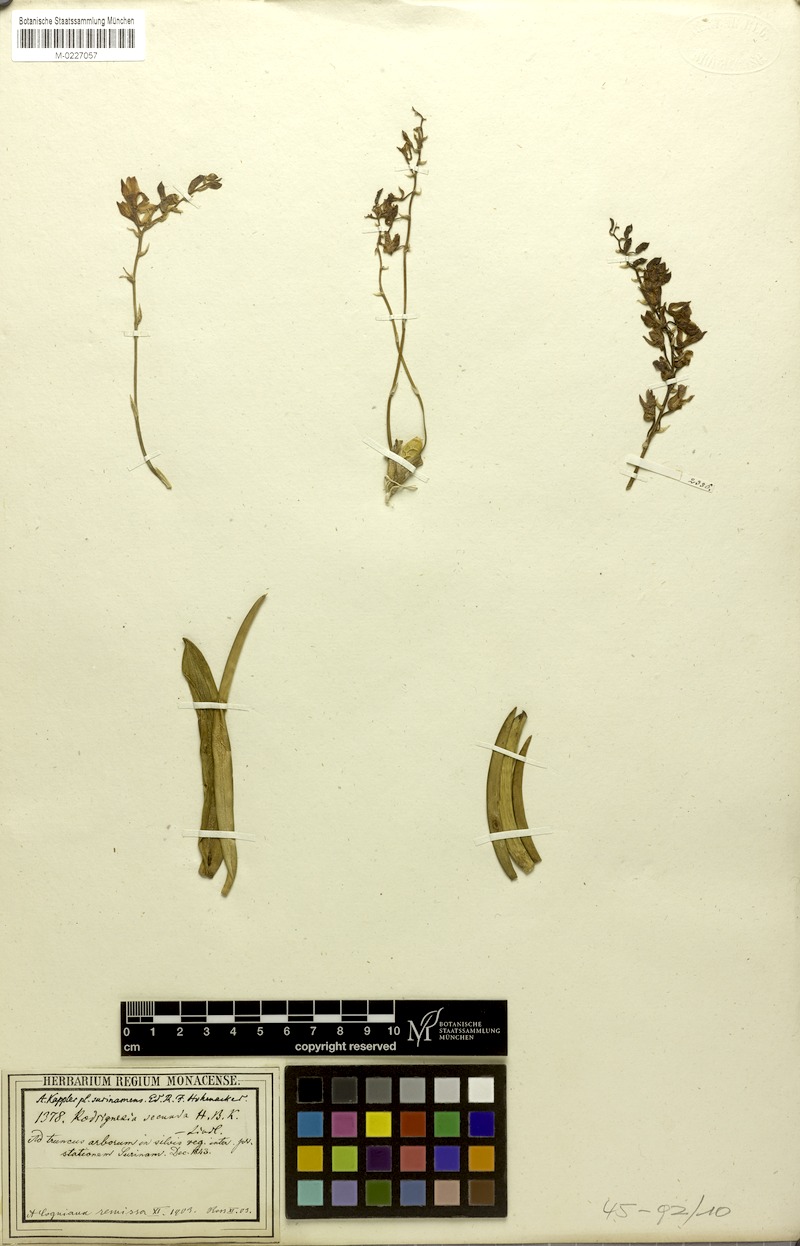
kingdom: Plantae
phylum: Tracheophyta
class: Liliopsida
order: Asparagales
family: Orchidaceae
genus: Rodriguezia
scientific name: Rodriguezia lanceolata
